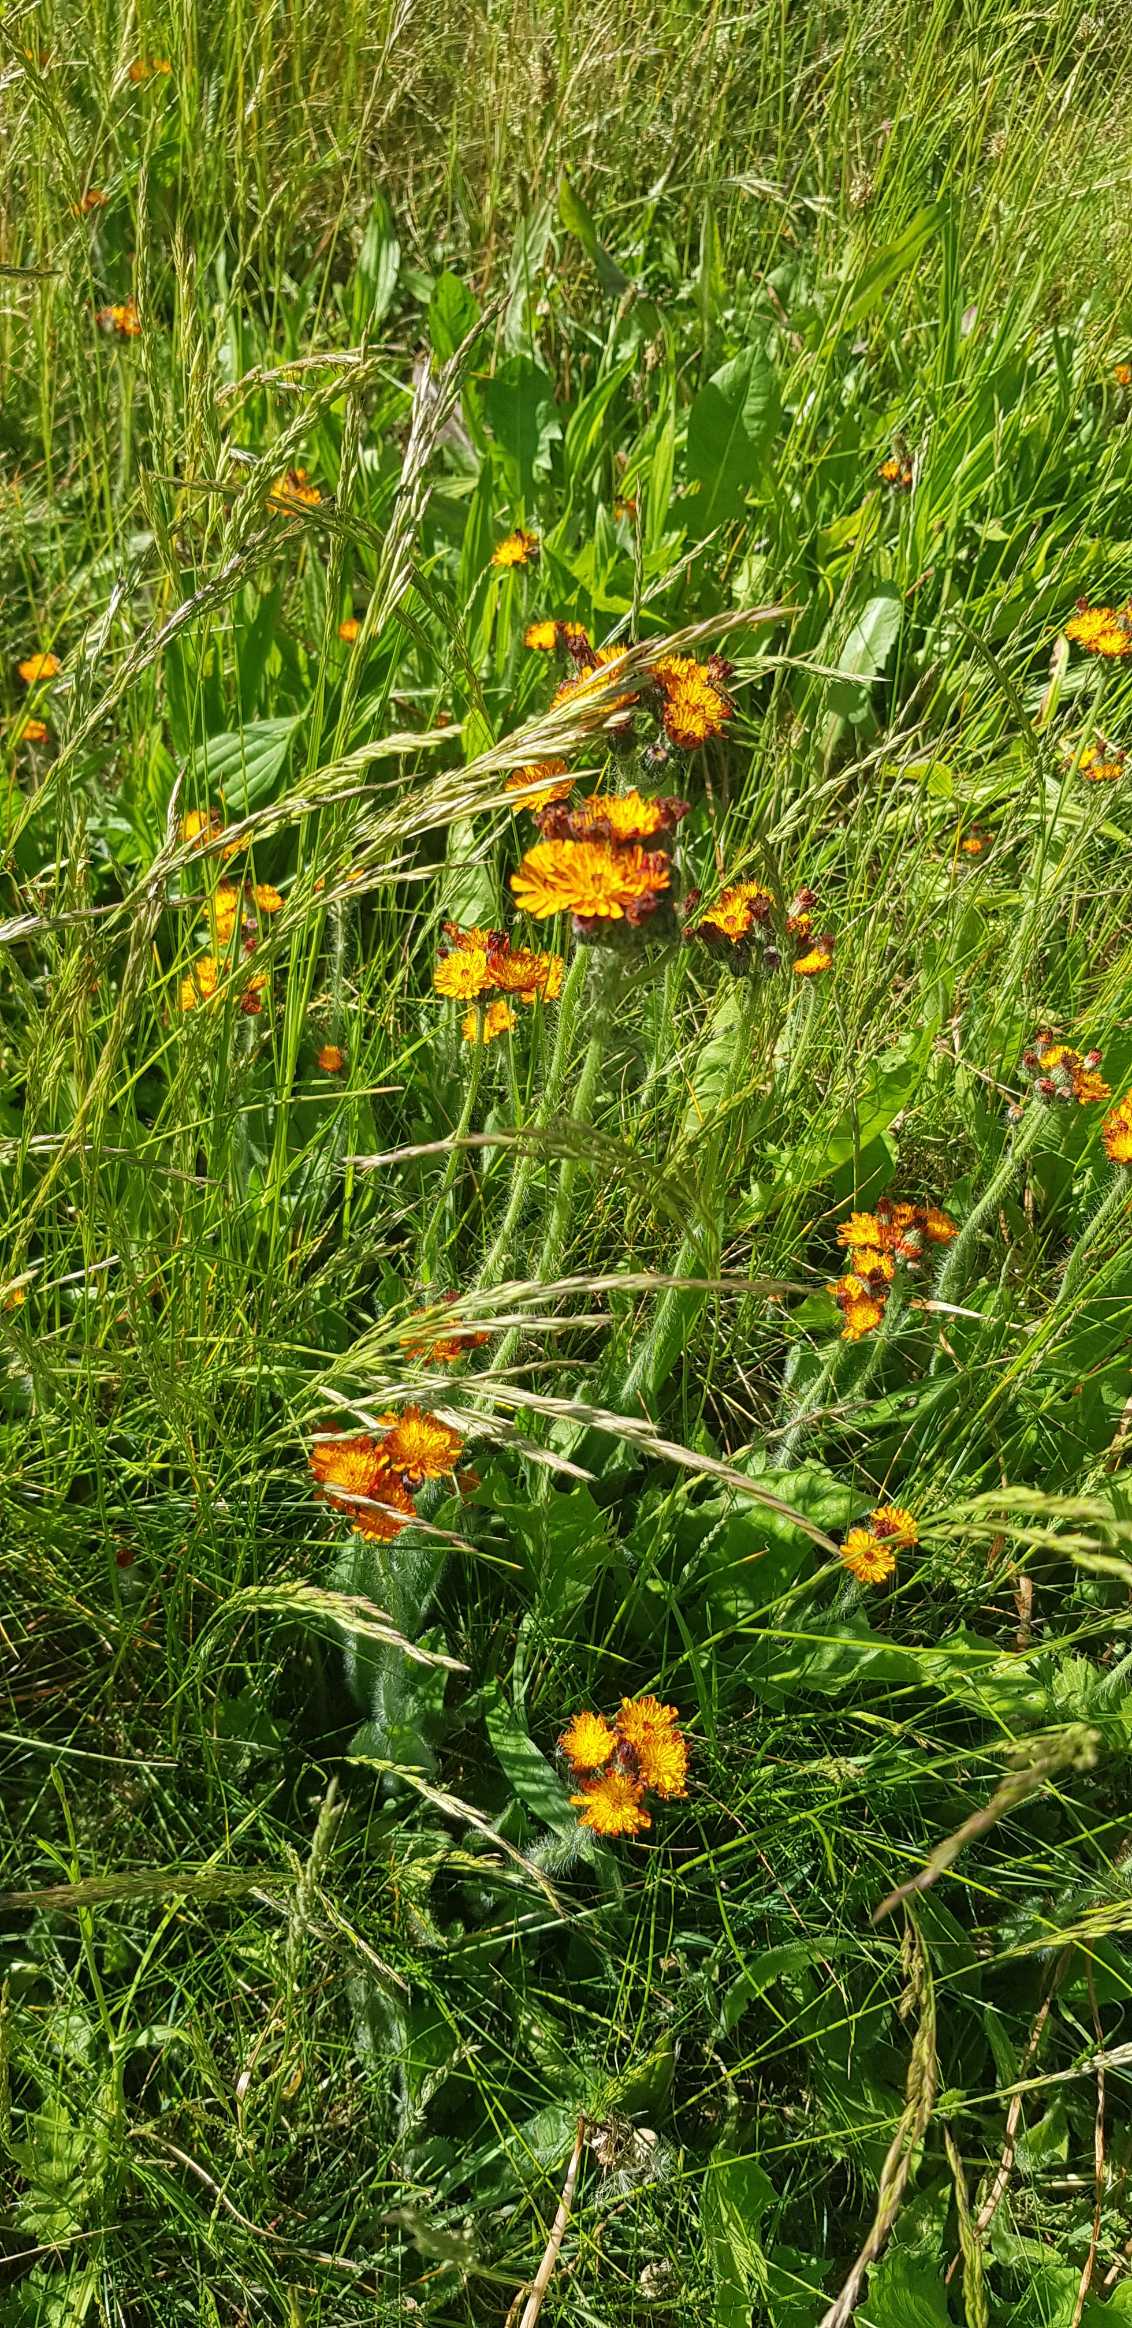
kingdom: Plantae
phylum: Tracheophyta
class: Magnoliopsida
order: Asterales
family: Asteraceae
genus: Pilosella
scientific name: Pilosella aurantiaca
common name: Pomerans-høgeurt
